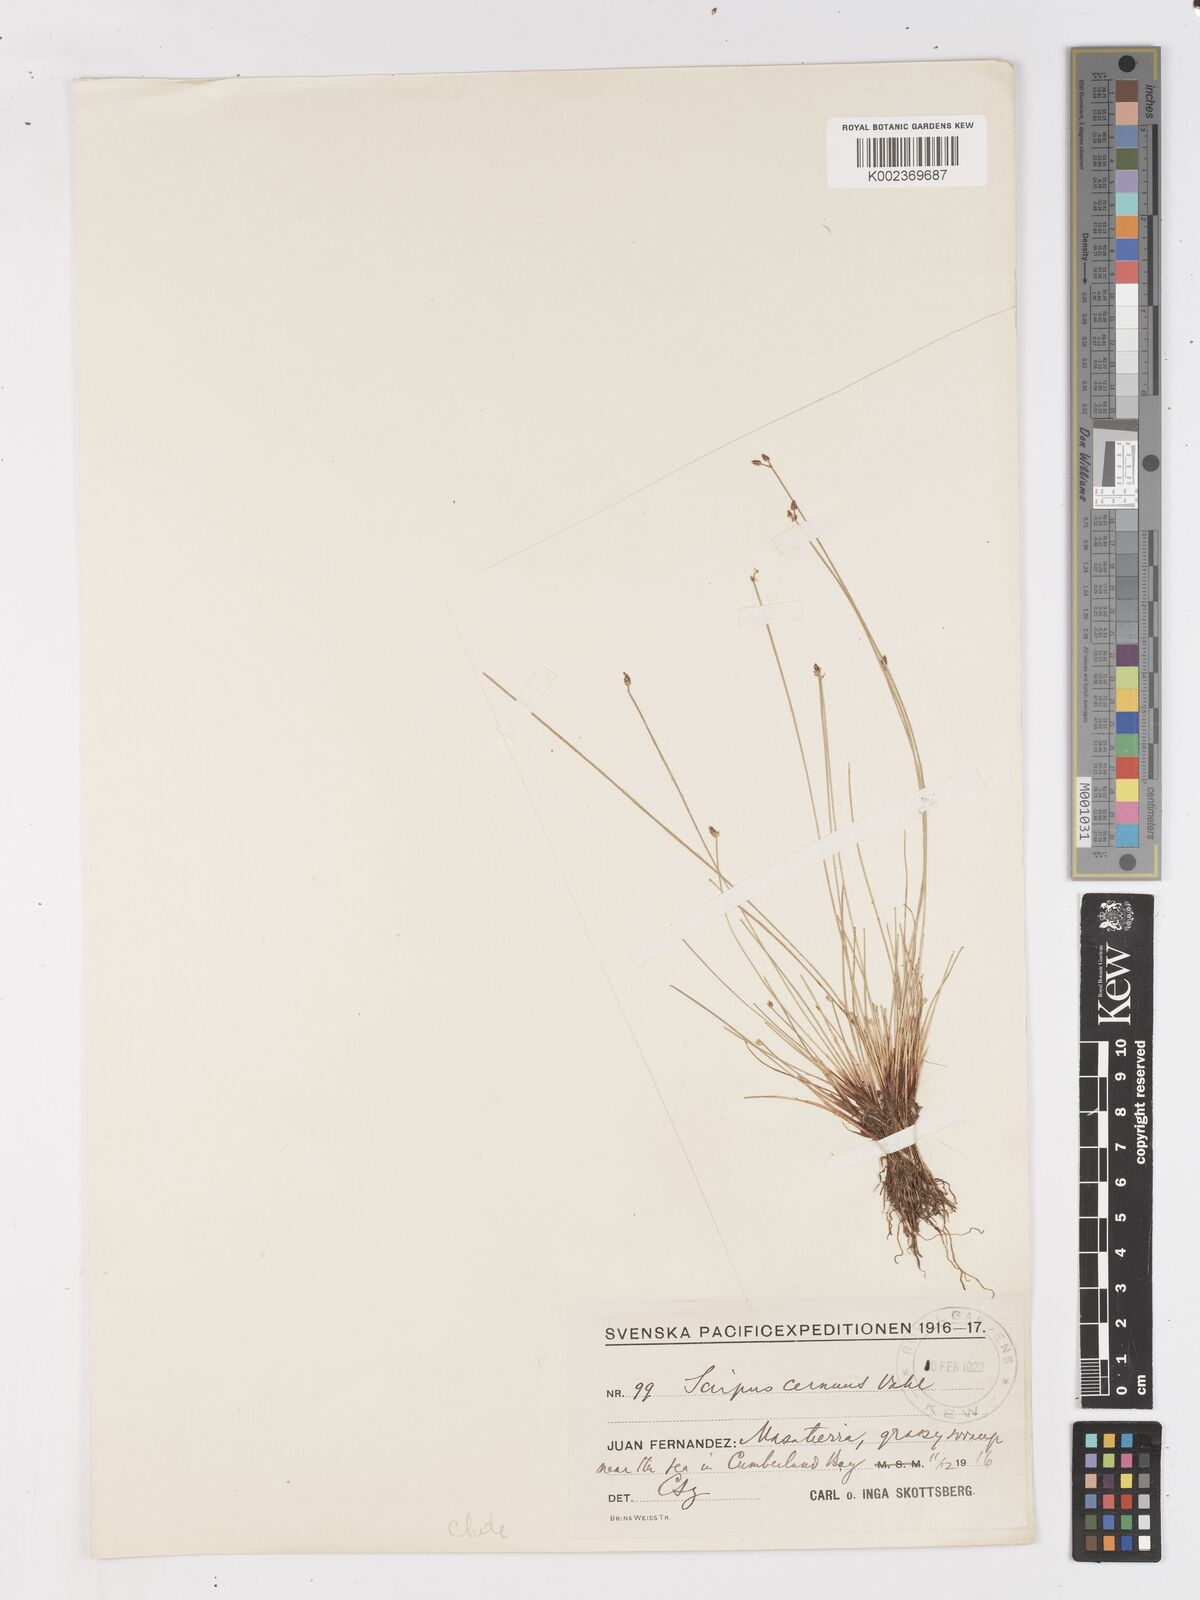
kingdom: Plantae
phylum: Tracheophyta
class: Liliopsida
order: Poales
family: Cyperaceae
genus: Isolepis
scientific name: Isolepis cernua
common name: Slender club-rush
